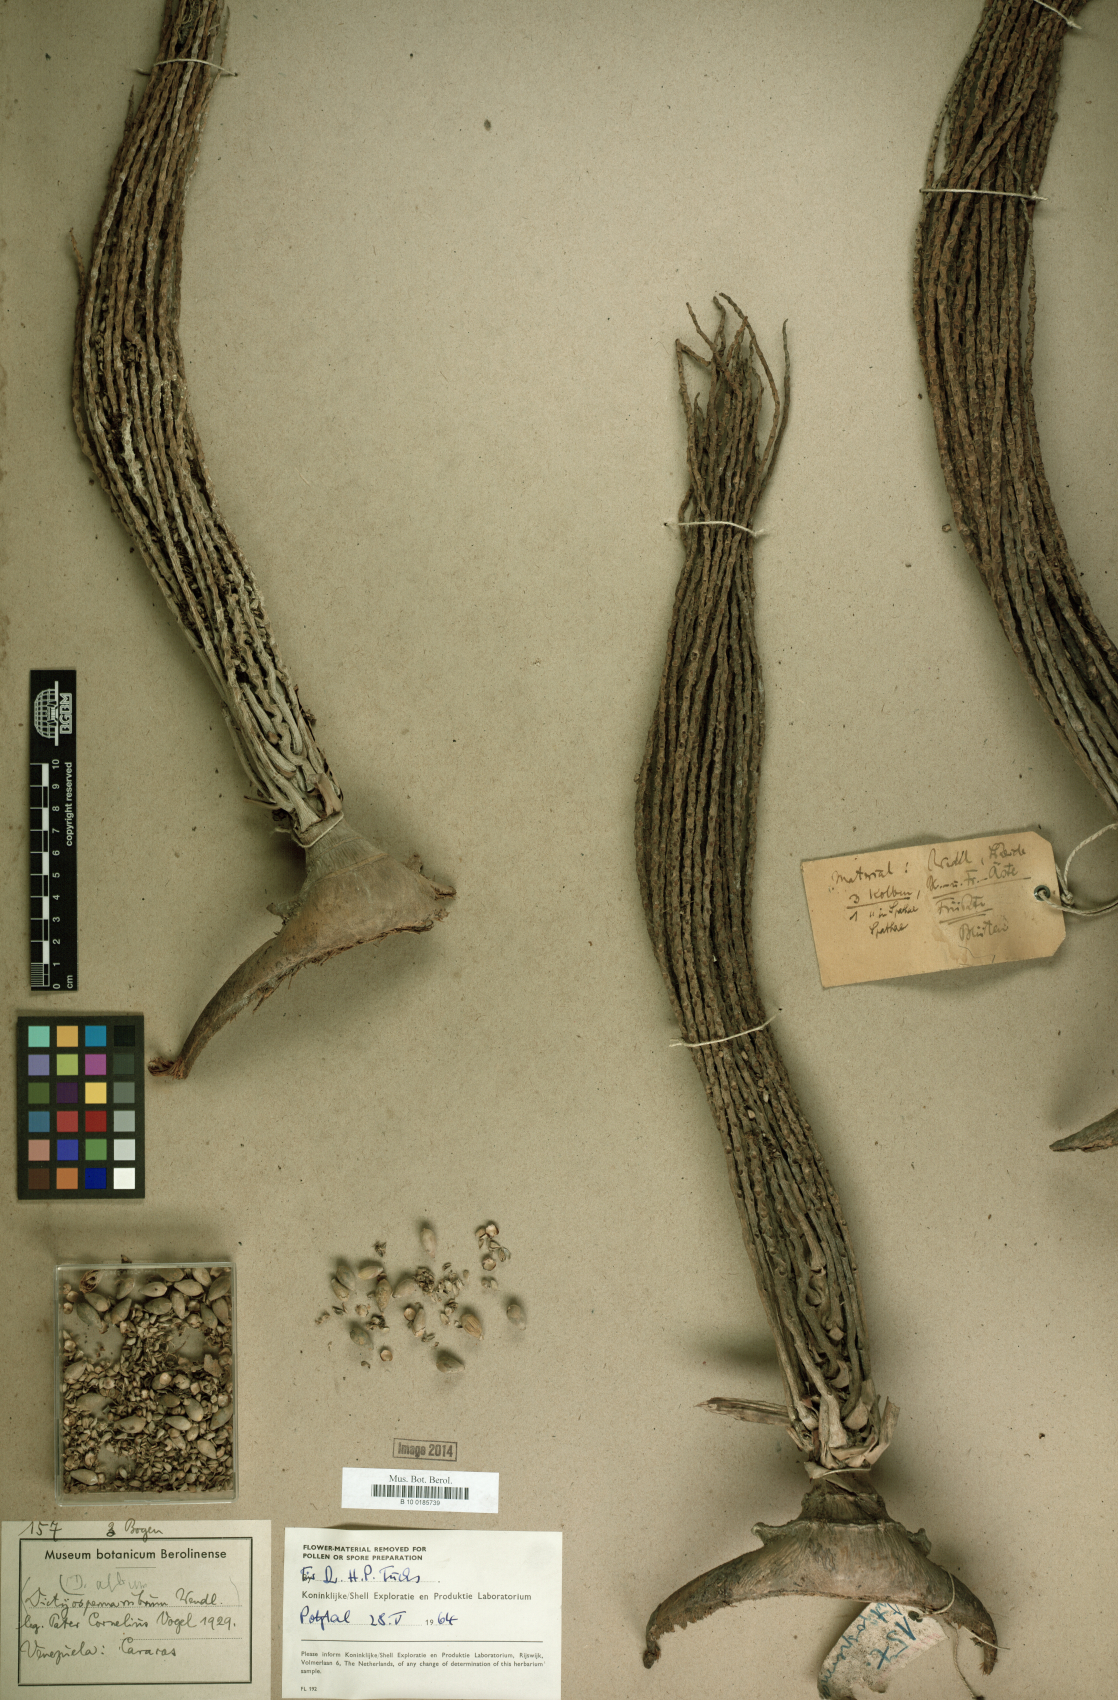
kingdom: Plantae
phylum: Tracheophyta
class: Liliopsida
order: Arecales
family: Arecaceae
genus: Dictyosperma
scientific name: Dictyosperma album
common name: Common princess palm
